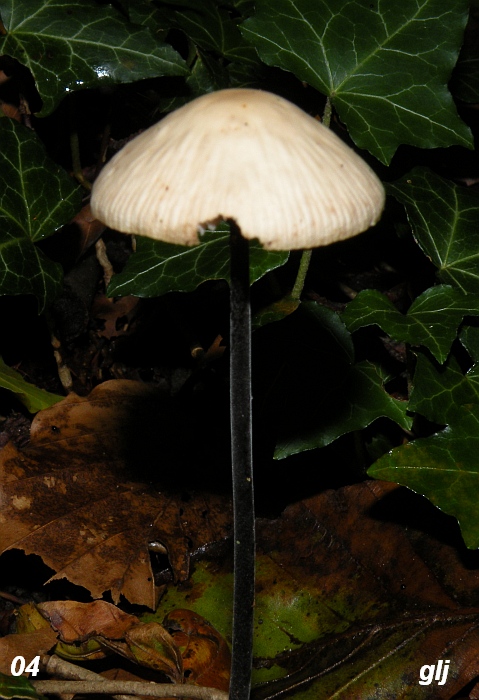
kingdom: Fungi
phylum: Basidiomycota
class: Agaricomycetes
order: Agaricales
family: Omphalotaceae
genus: Mycetinis
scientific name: Mycetinis alliaceus
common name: stor løghat
